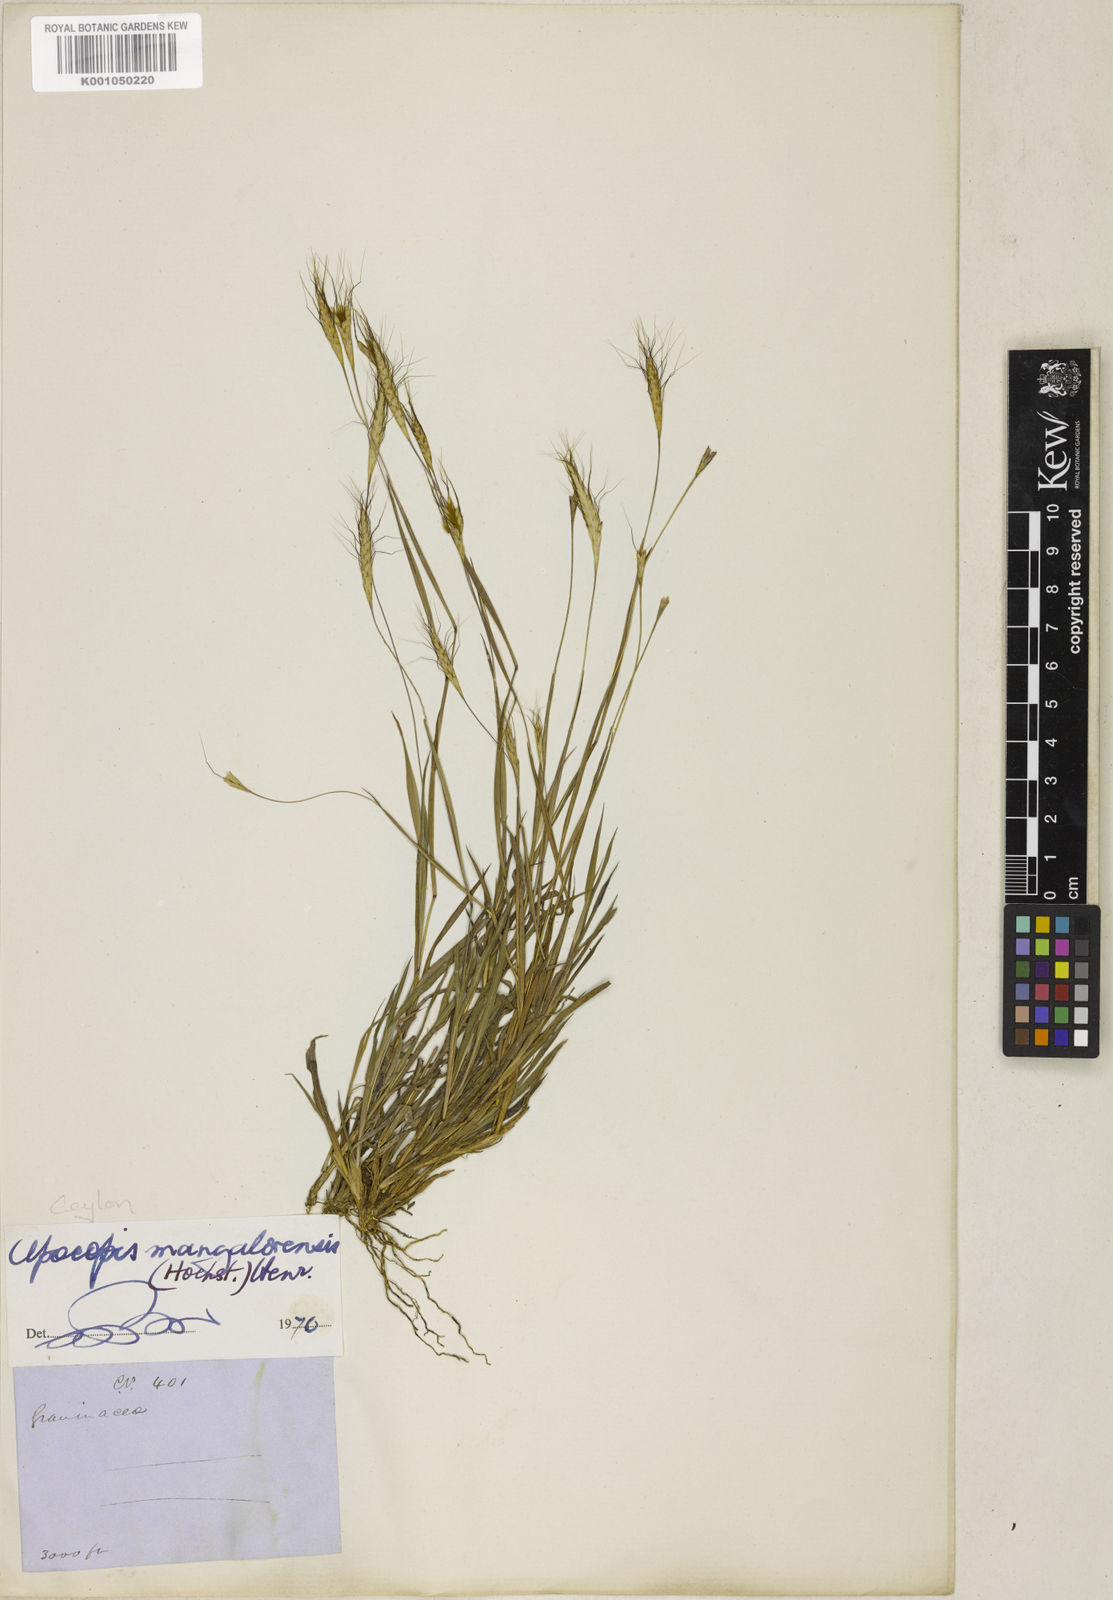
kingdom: Plantae
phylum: Tracheophyta
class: Liliopsida
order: Poales
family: Poaceae
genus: Apocopis
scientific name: Apocopis mangalorensis
